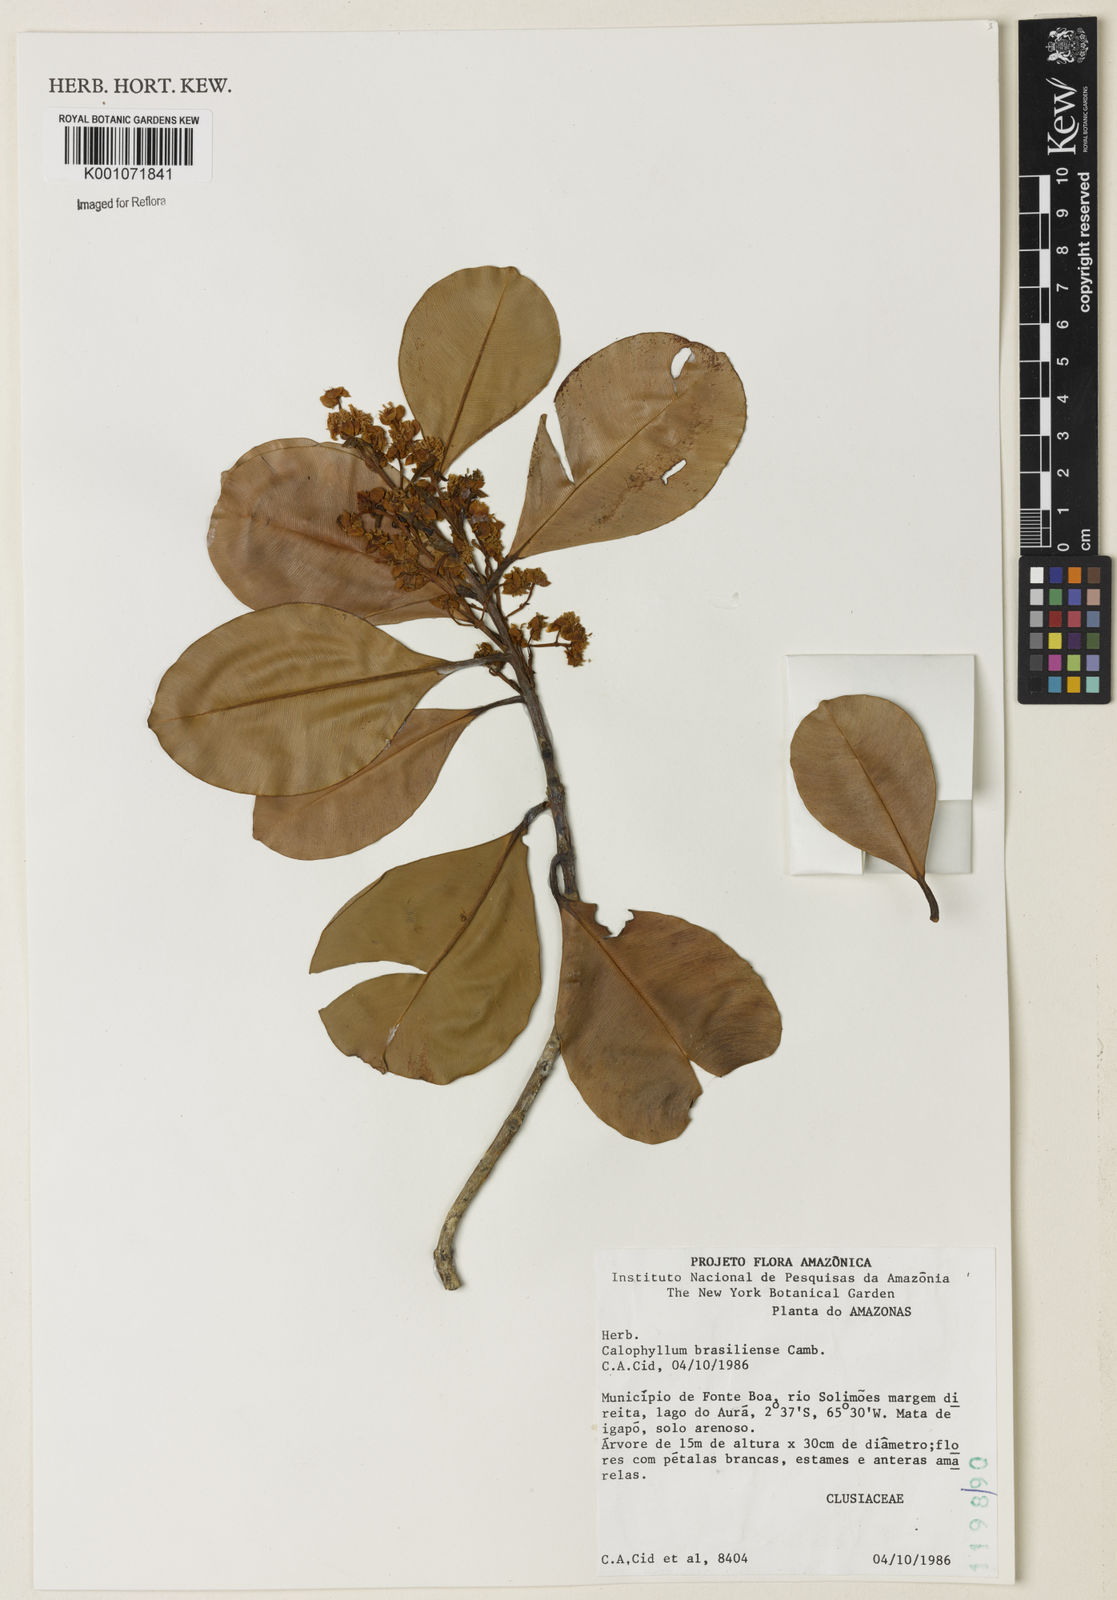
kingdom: Plantae
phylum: Tracheophyta
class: Magnoliopsida
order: Malpighiales
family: Calophyllaceae
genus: Calophyllum
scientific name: Calophyllum brasiliense
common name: Santa maria
